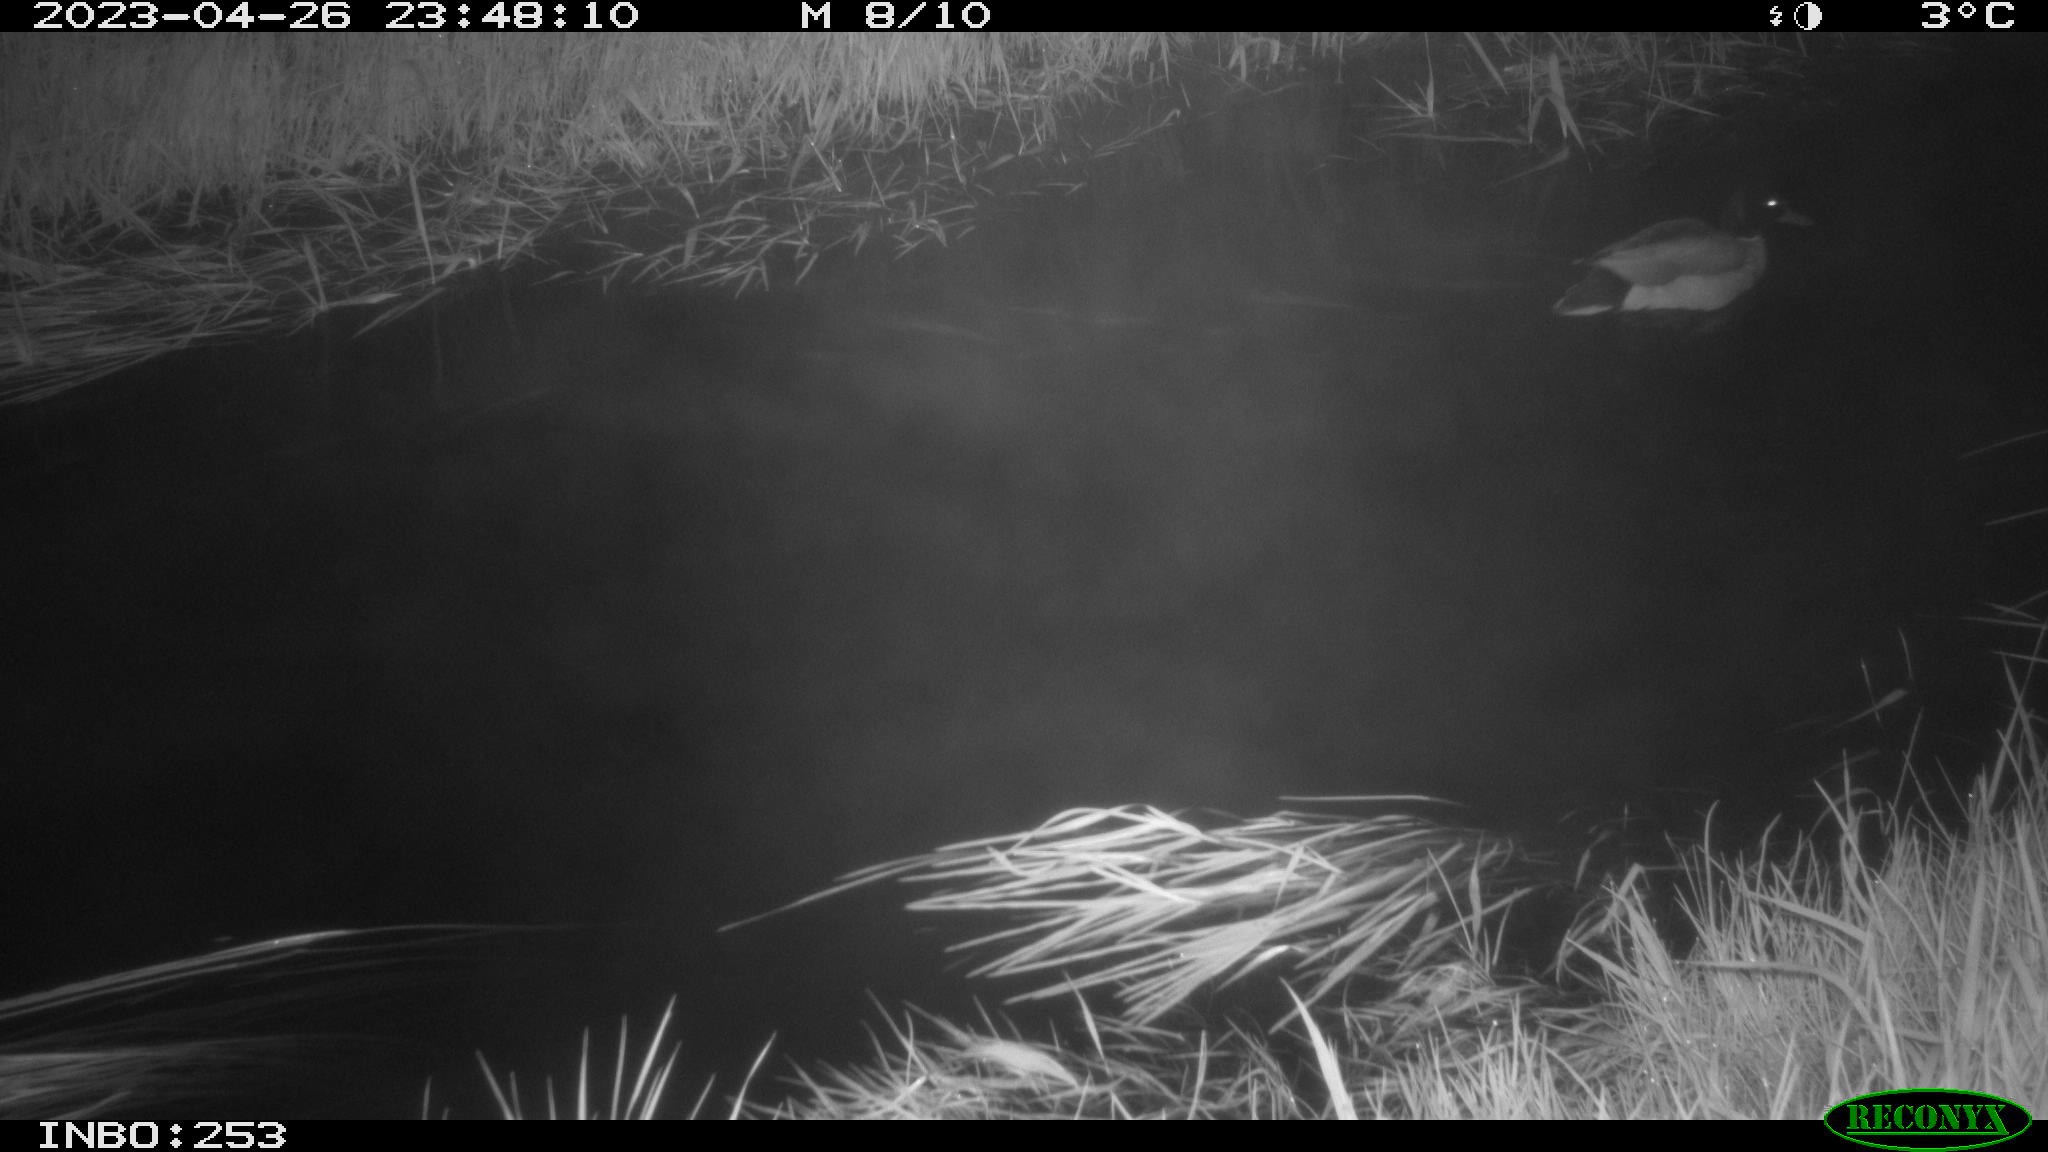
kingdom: Animalia
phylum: Chordata
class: Aves
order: Anseriformes
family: Anatidae
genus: Anas
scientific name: Anas
